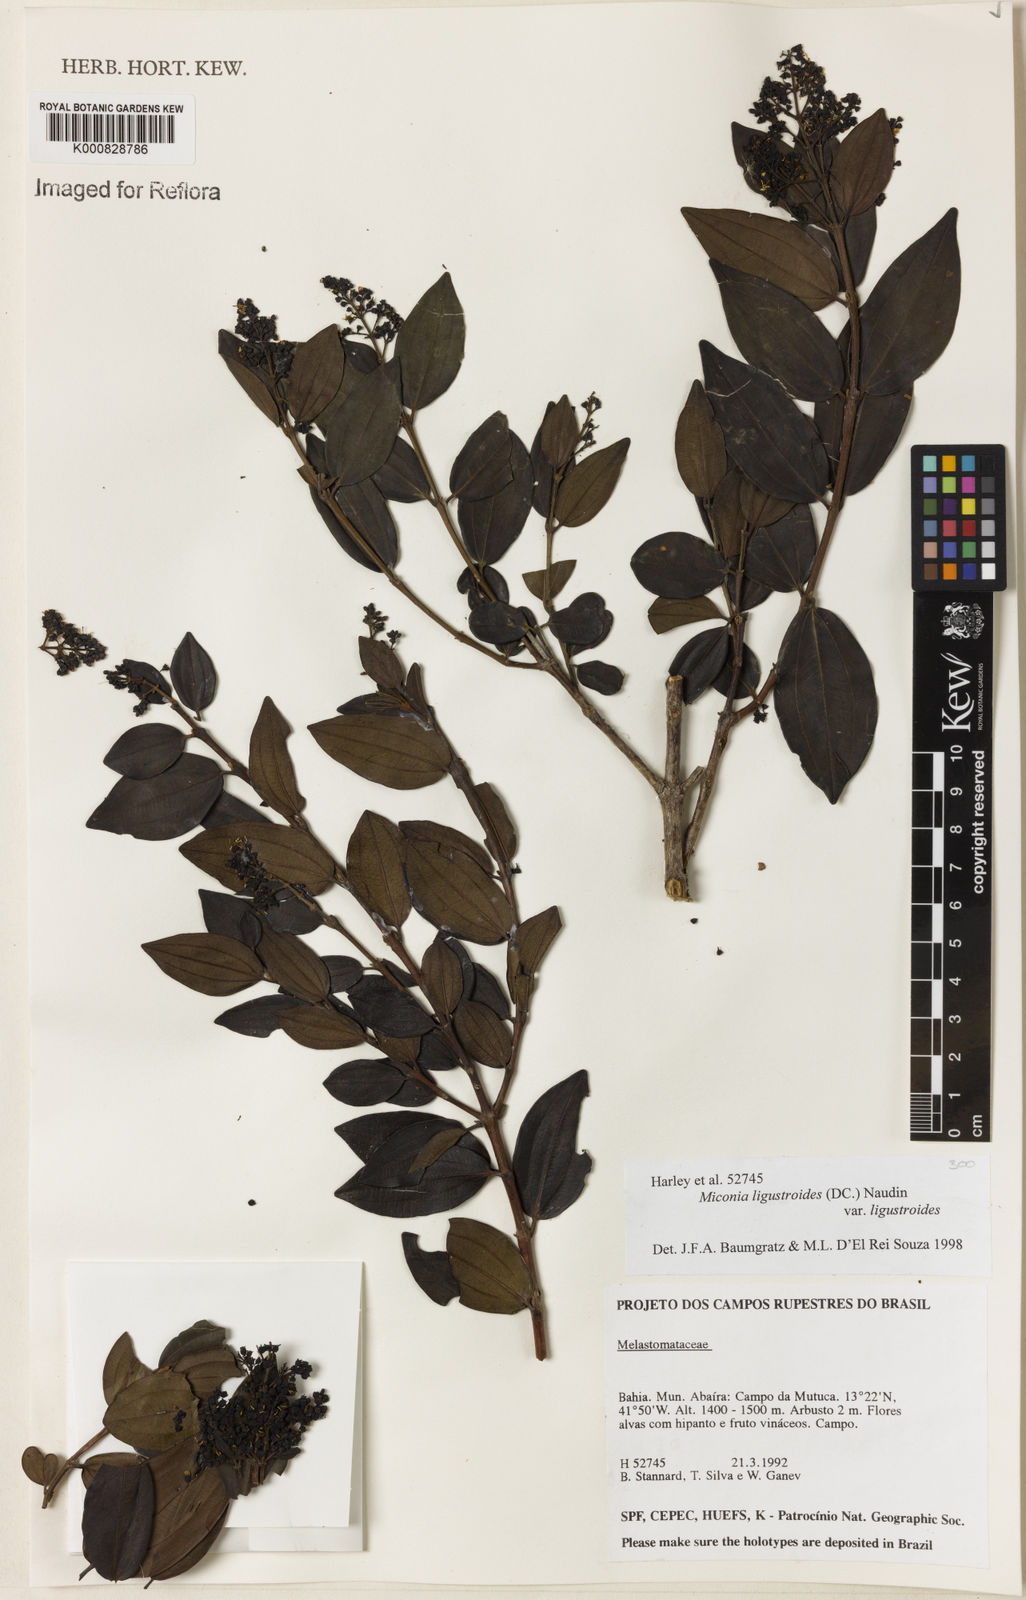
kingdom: Plantae
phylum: Tracheophyta
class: Magnoliopsida
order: Myrtales
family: Melastomataceae
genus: Miconia
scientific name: Miconia ligustroides
